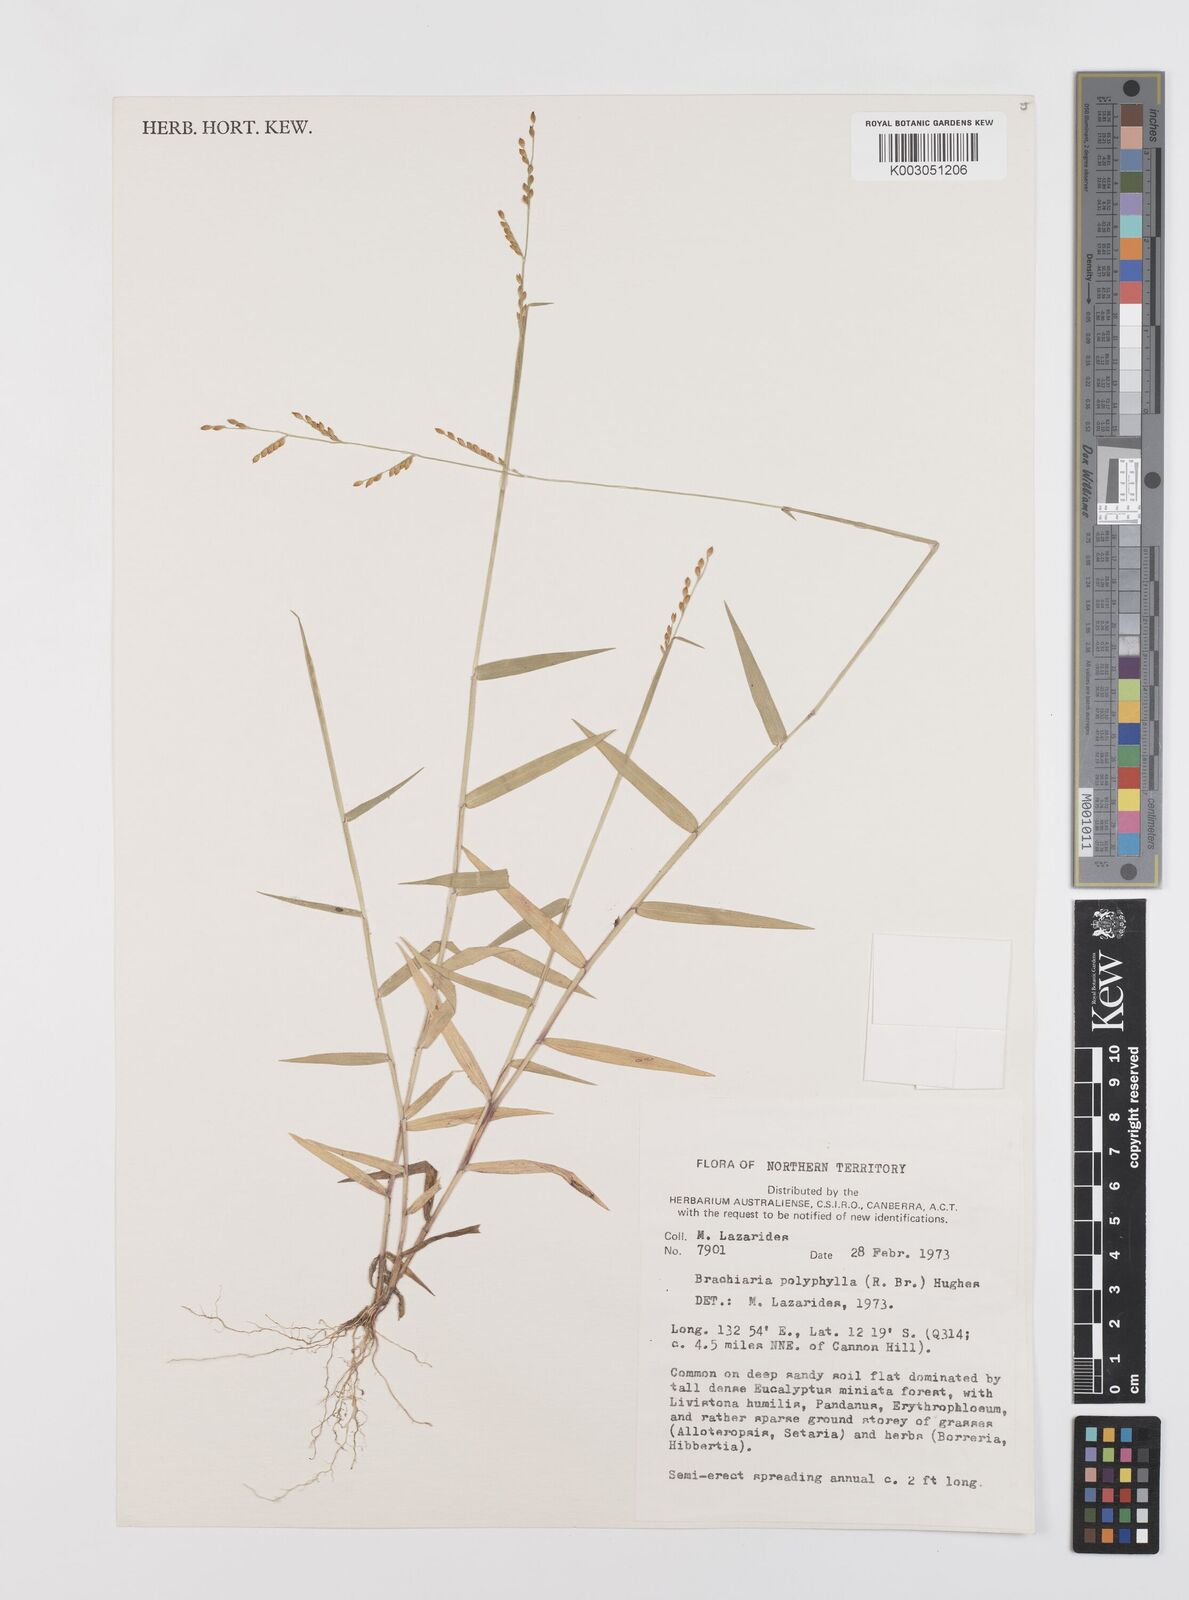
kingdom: Plantae
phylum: Tracheophyta
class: Liliopsida
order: Poales
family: Poaceae
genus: Urochloa
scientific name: Urochloa polyphylla
